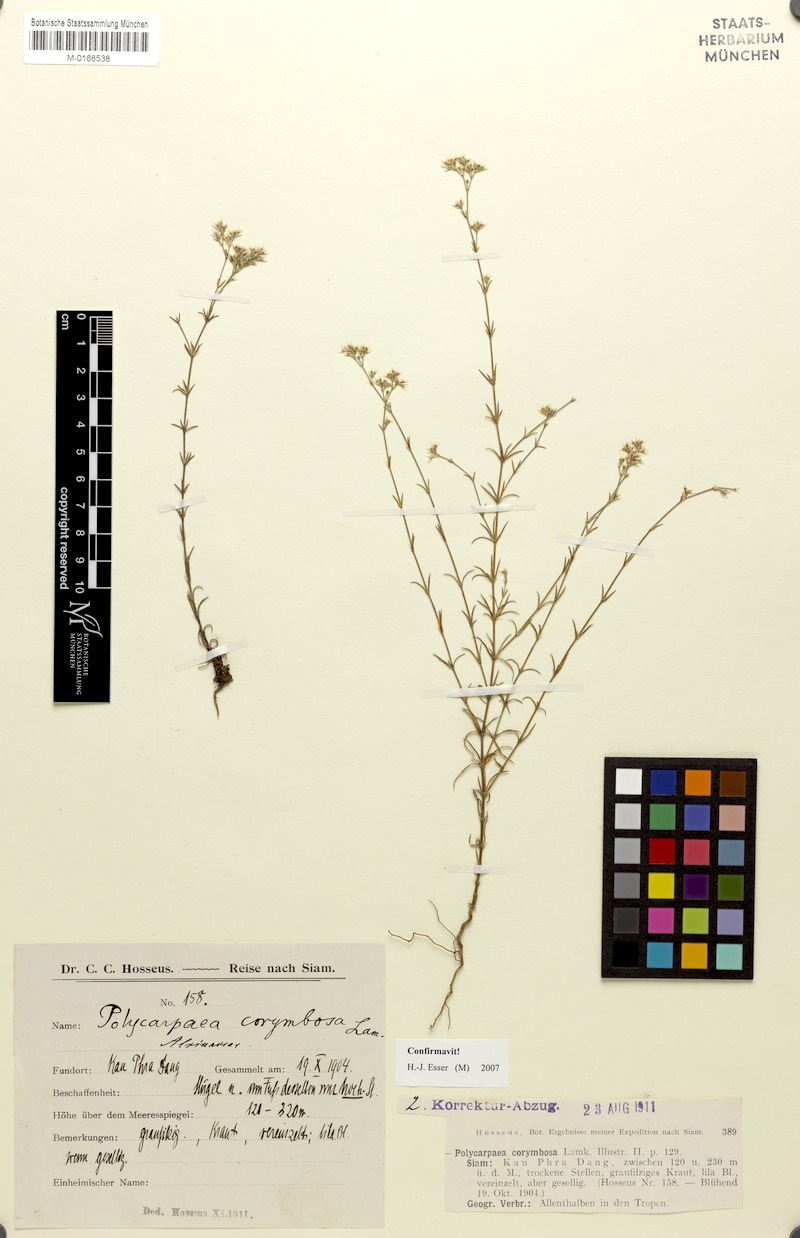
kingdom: Plantae
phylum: Tracheophyta
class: Magnoliopsida
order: Caryophyllales
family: Caryophyllaceae
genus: Polycarpaea
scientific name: Polycarpaea corymbosa
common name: Oldman's cap
